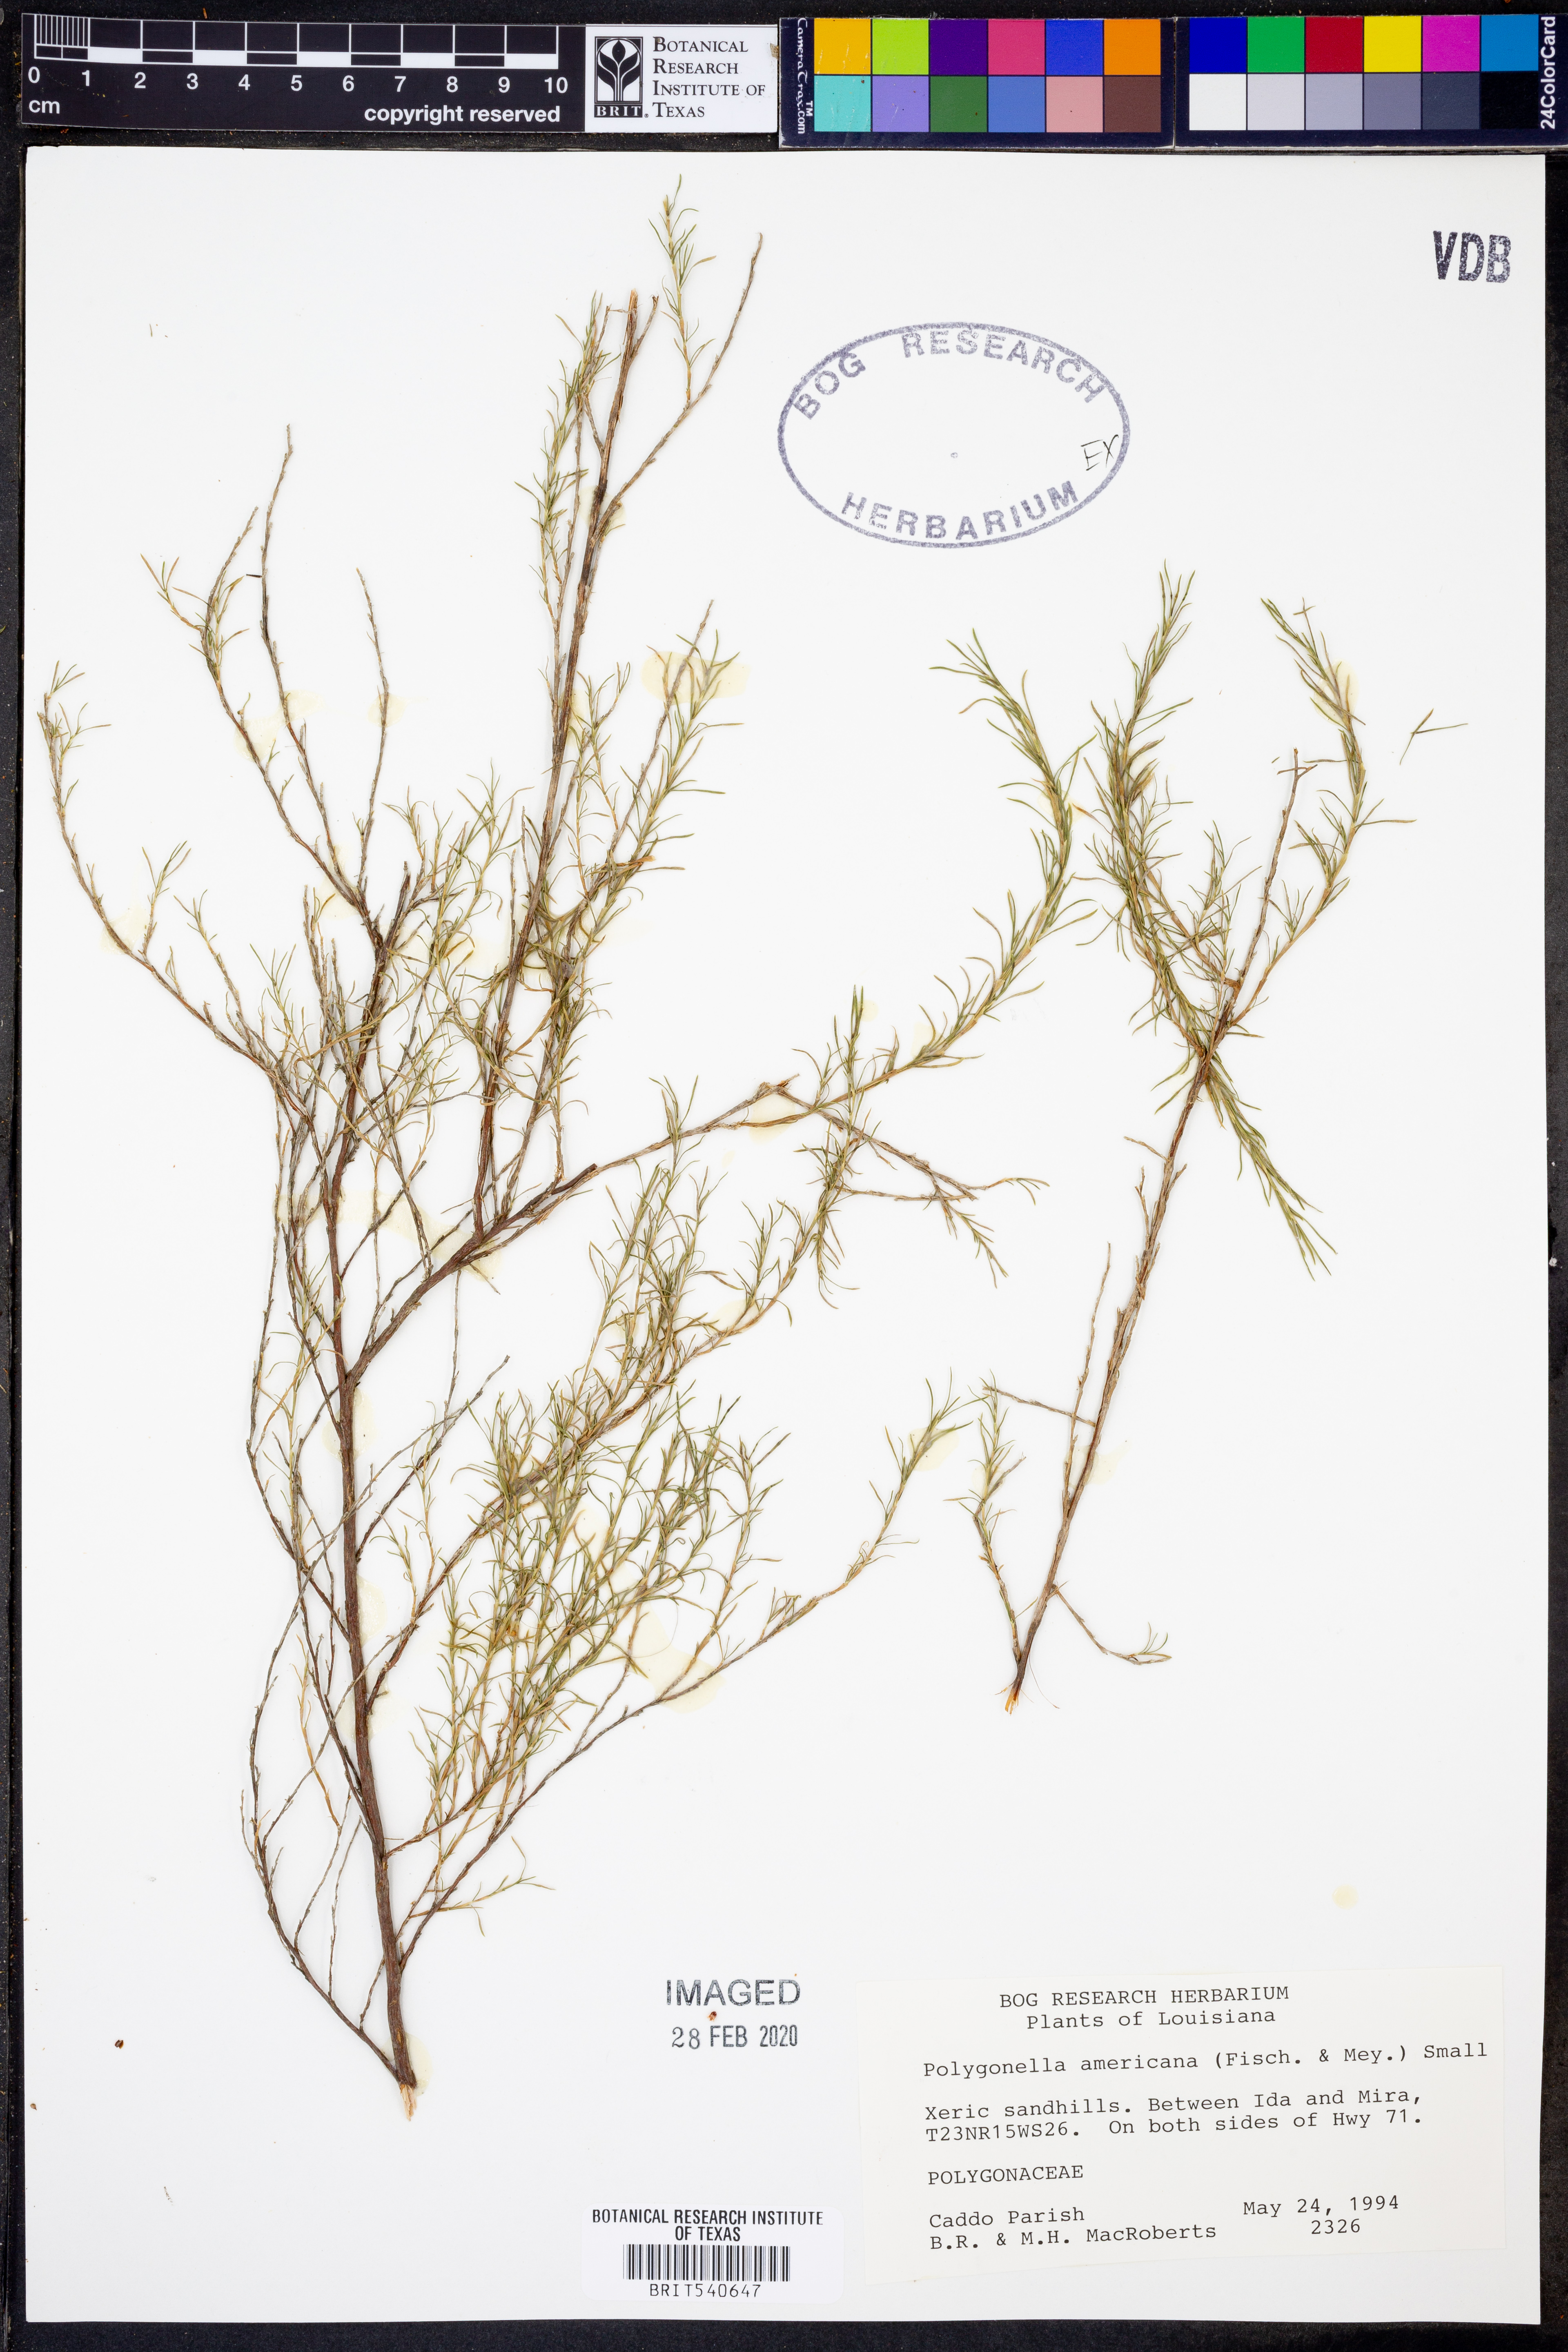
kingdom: Plantae
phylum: Tracheophyta
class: Magnoliopsida
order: Caryophyllales
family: Polygonaceae
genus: Polygonella
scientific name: Polygonella americana
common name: Southern jointweed
